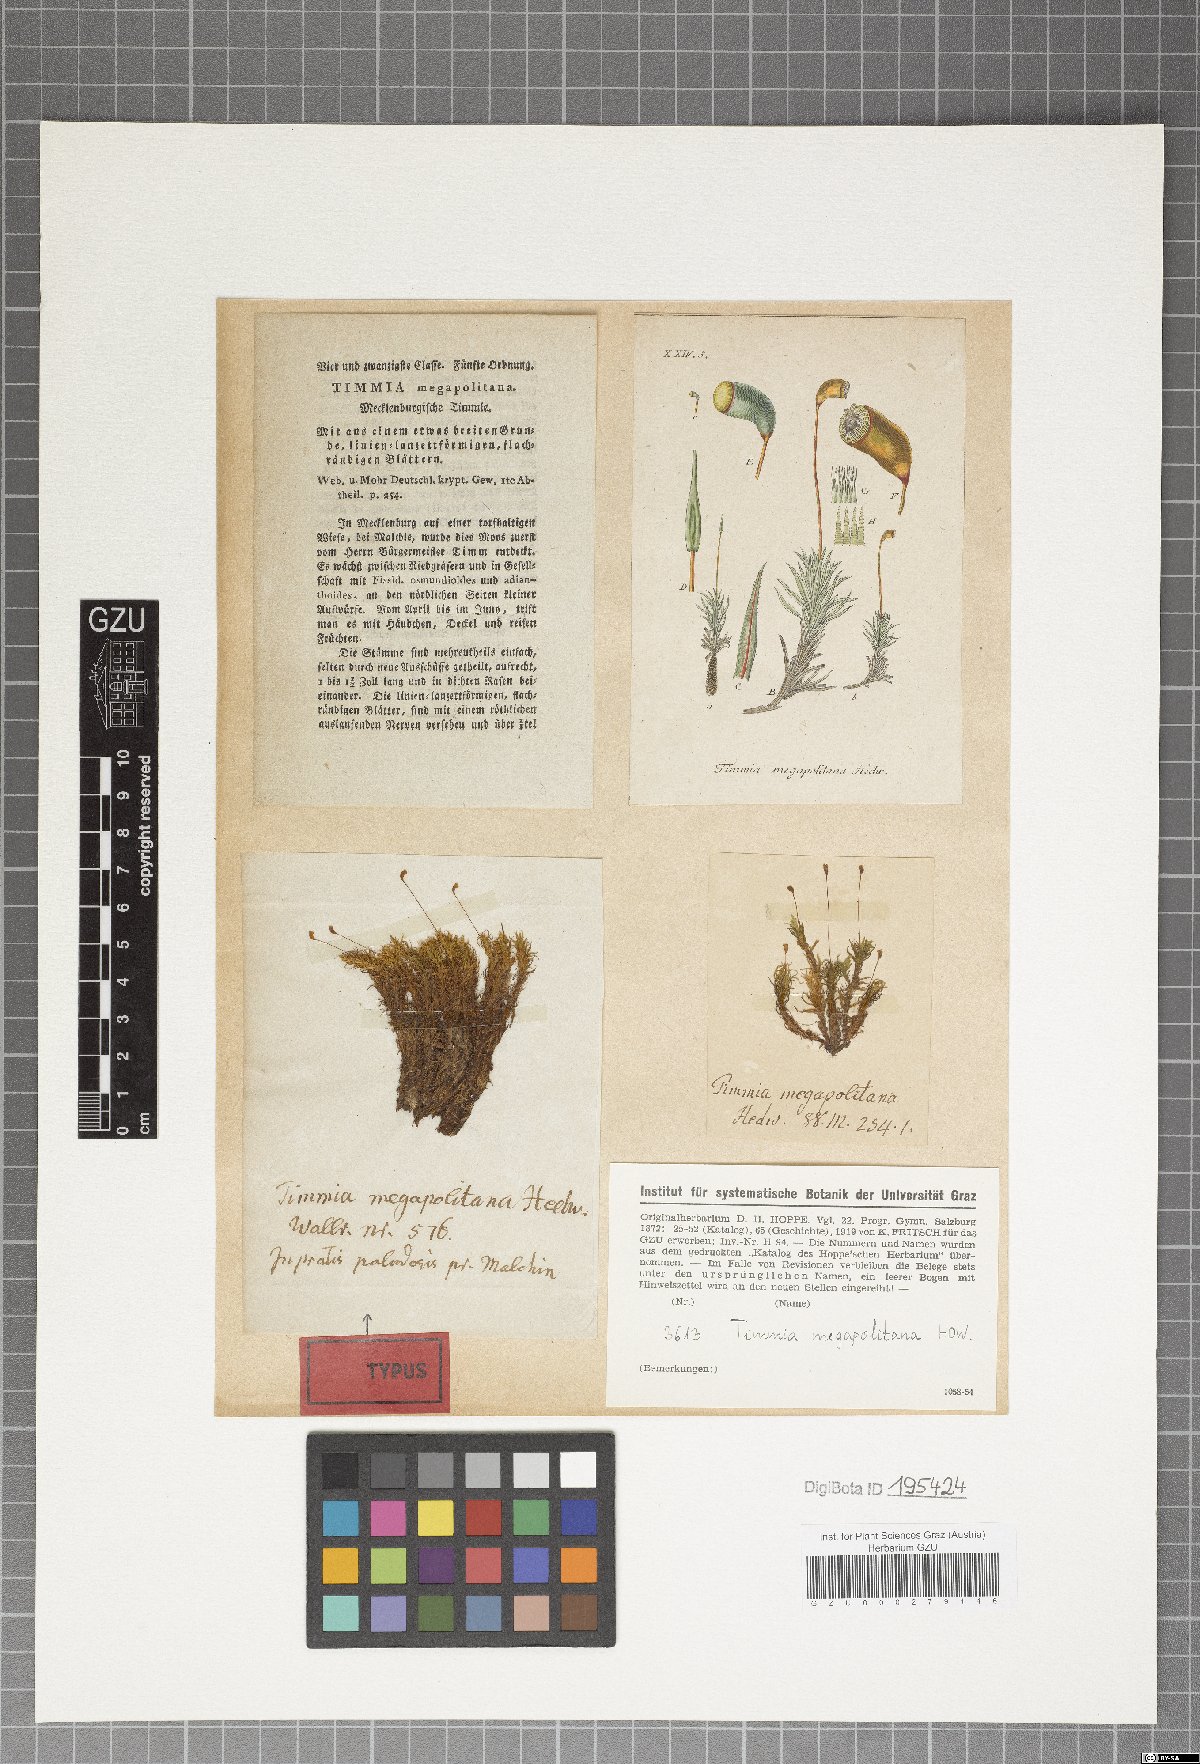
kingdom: Plantae
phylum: Bryophyta
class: Bryopsida
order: Timmiales
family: Timmiaceae
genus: Timmia
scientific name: Timmia megapolitana
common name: Warrior moss
